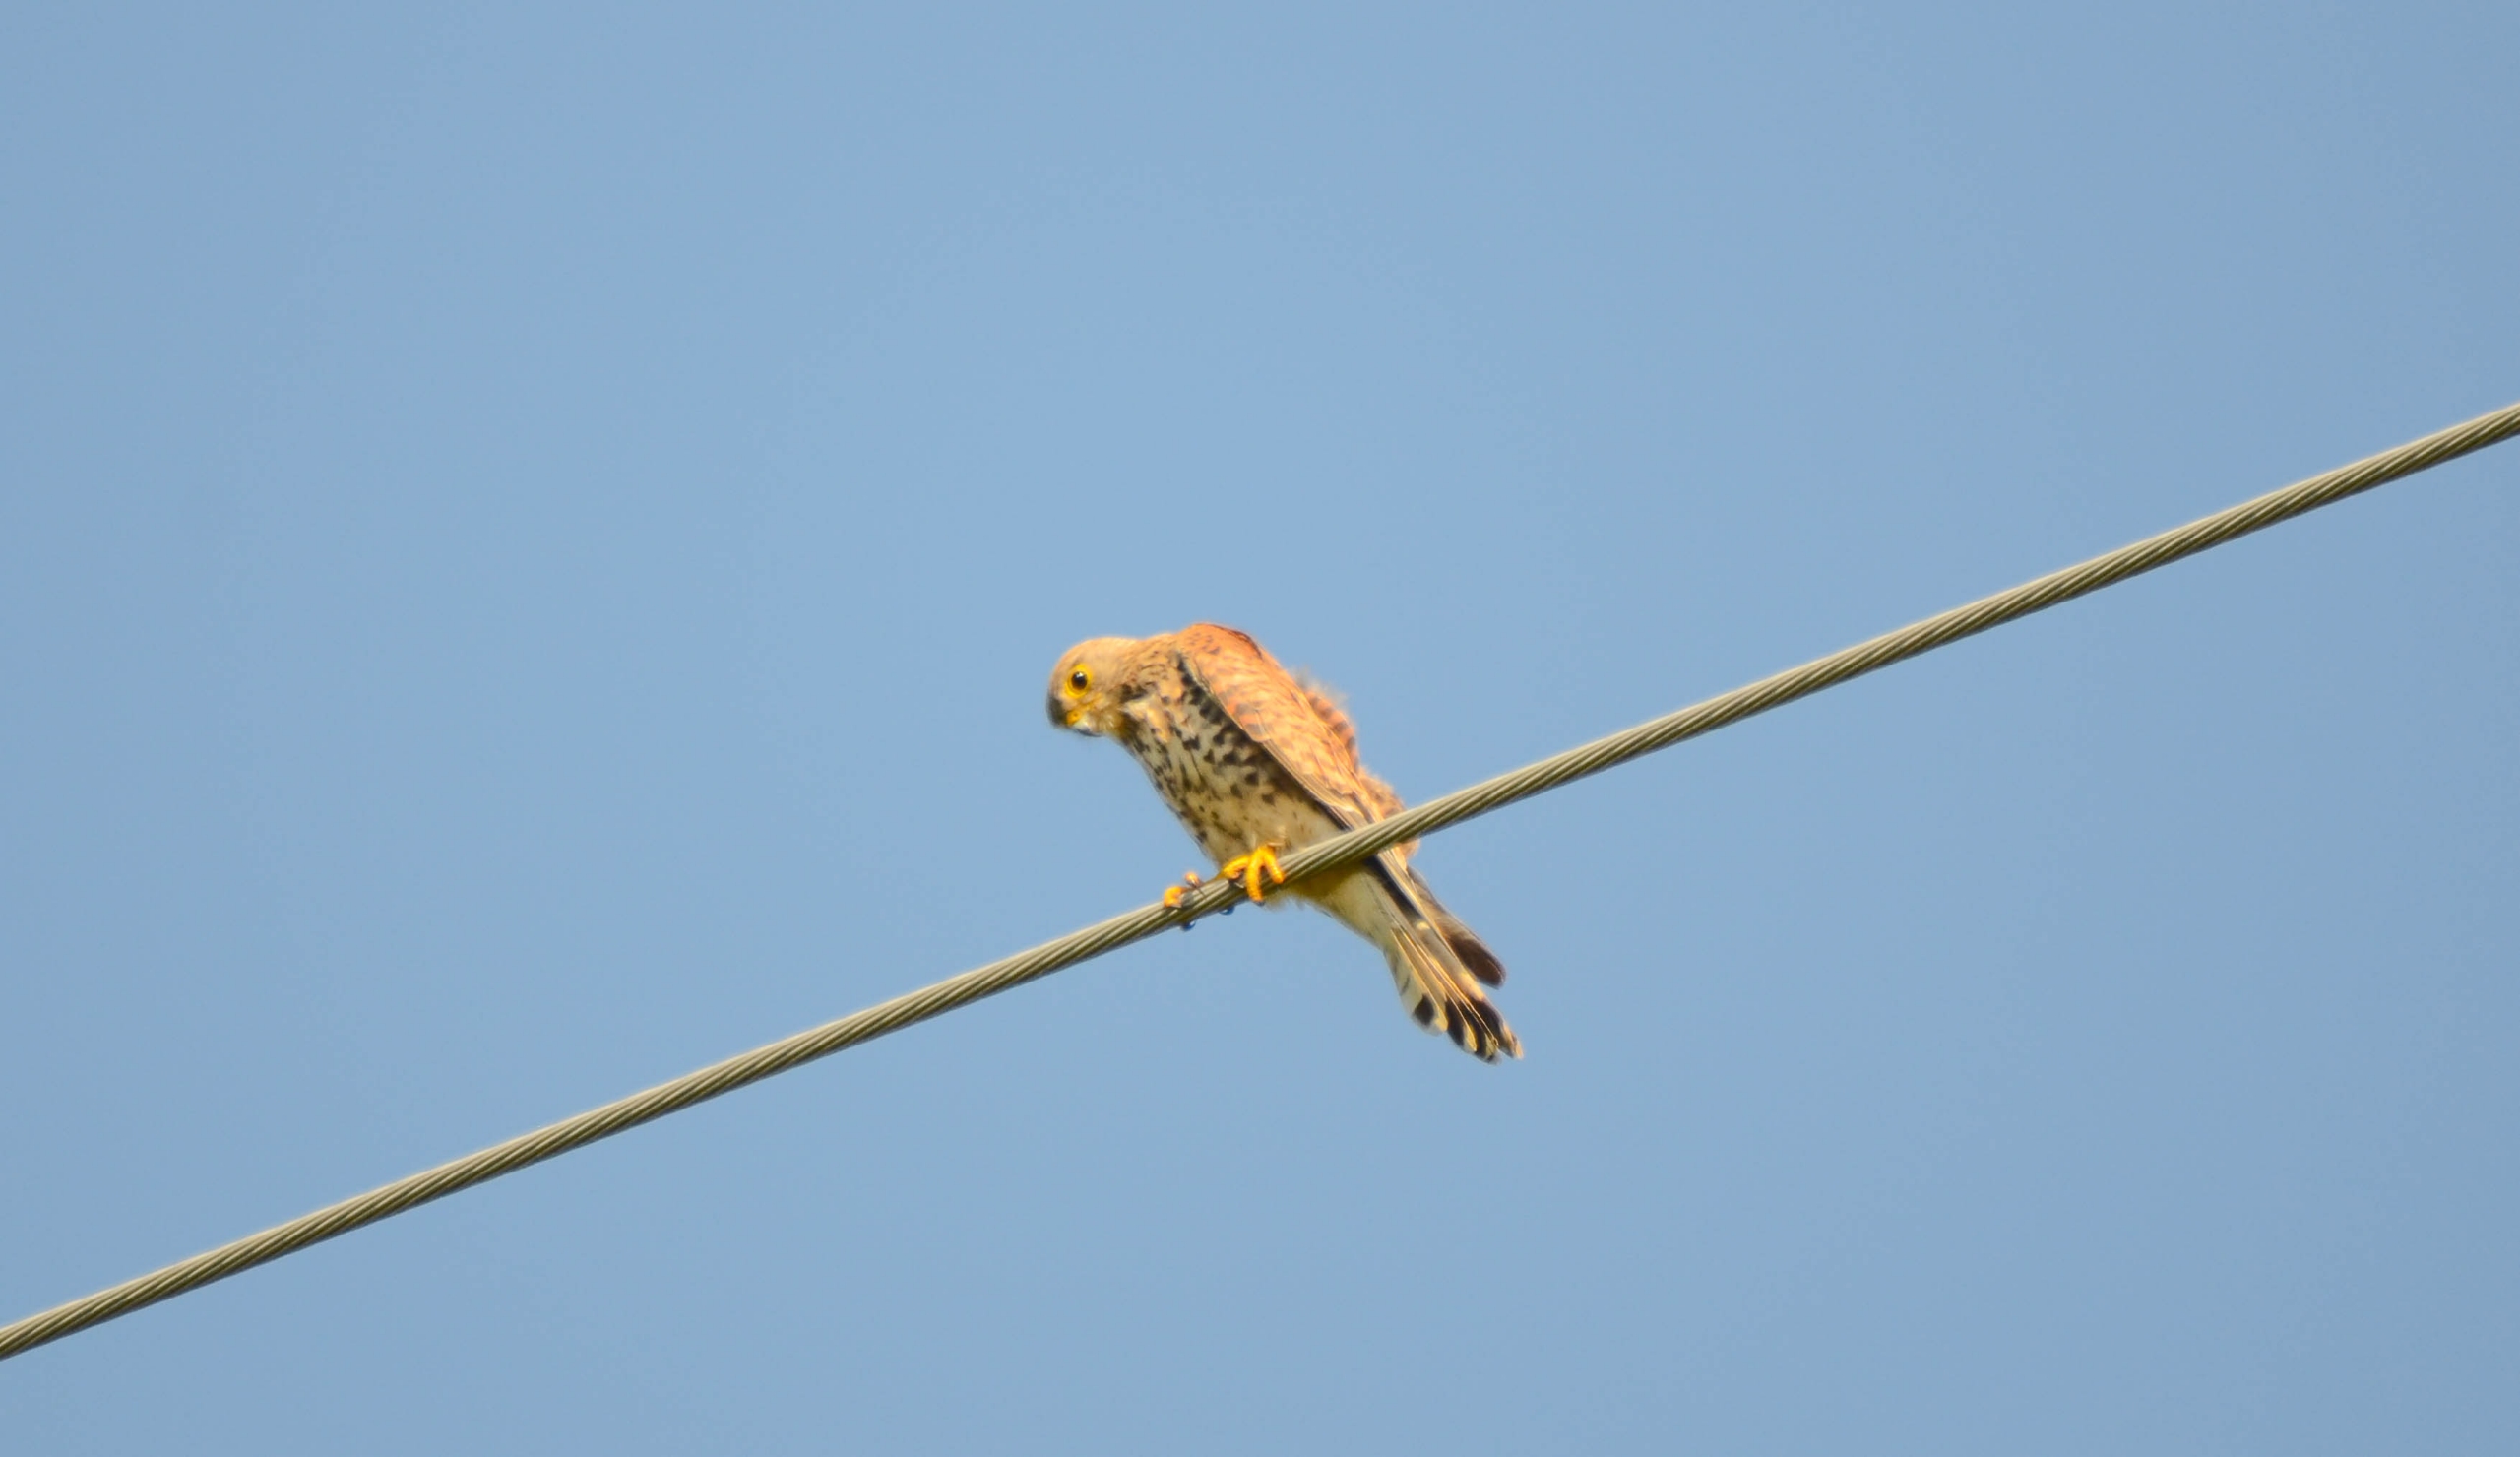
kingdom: Animalia
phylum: Chordata
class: Aves
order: Falconiformes
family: Falconidae
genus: Falco
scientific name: Falco tinnunculus
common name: Tårnfalk
